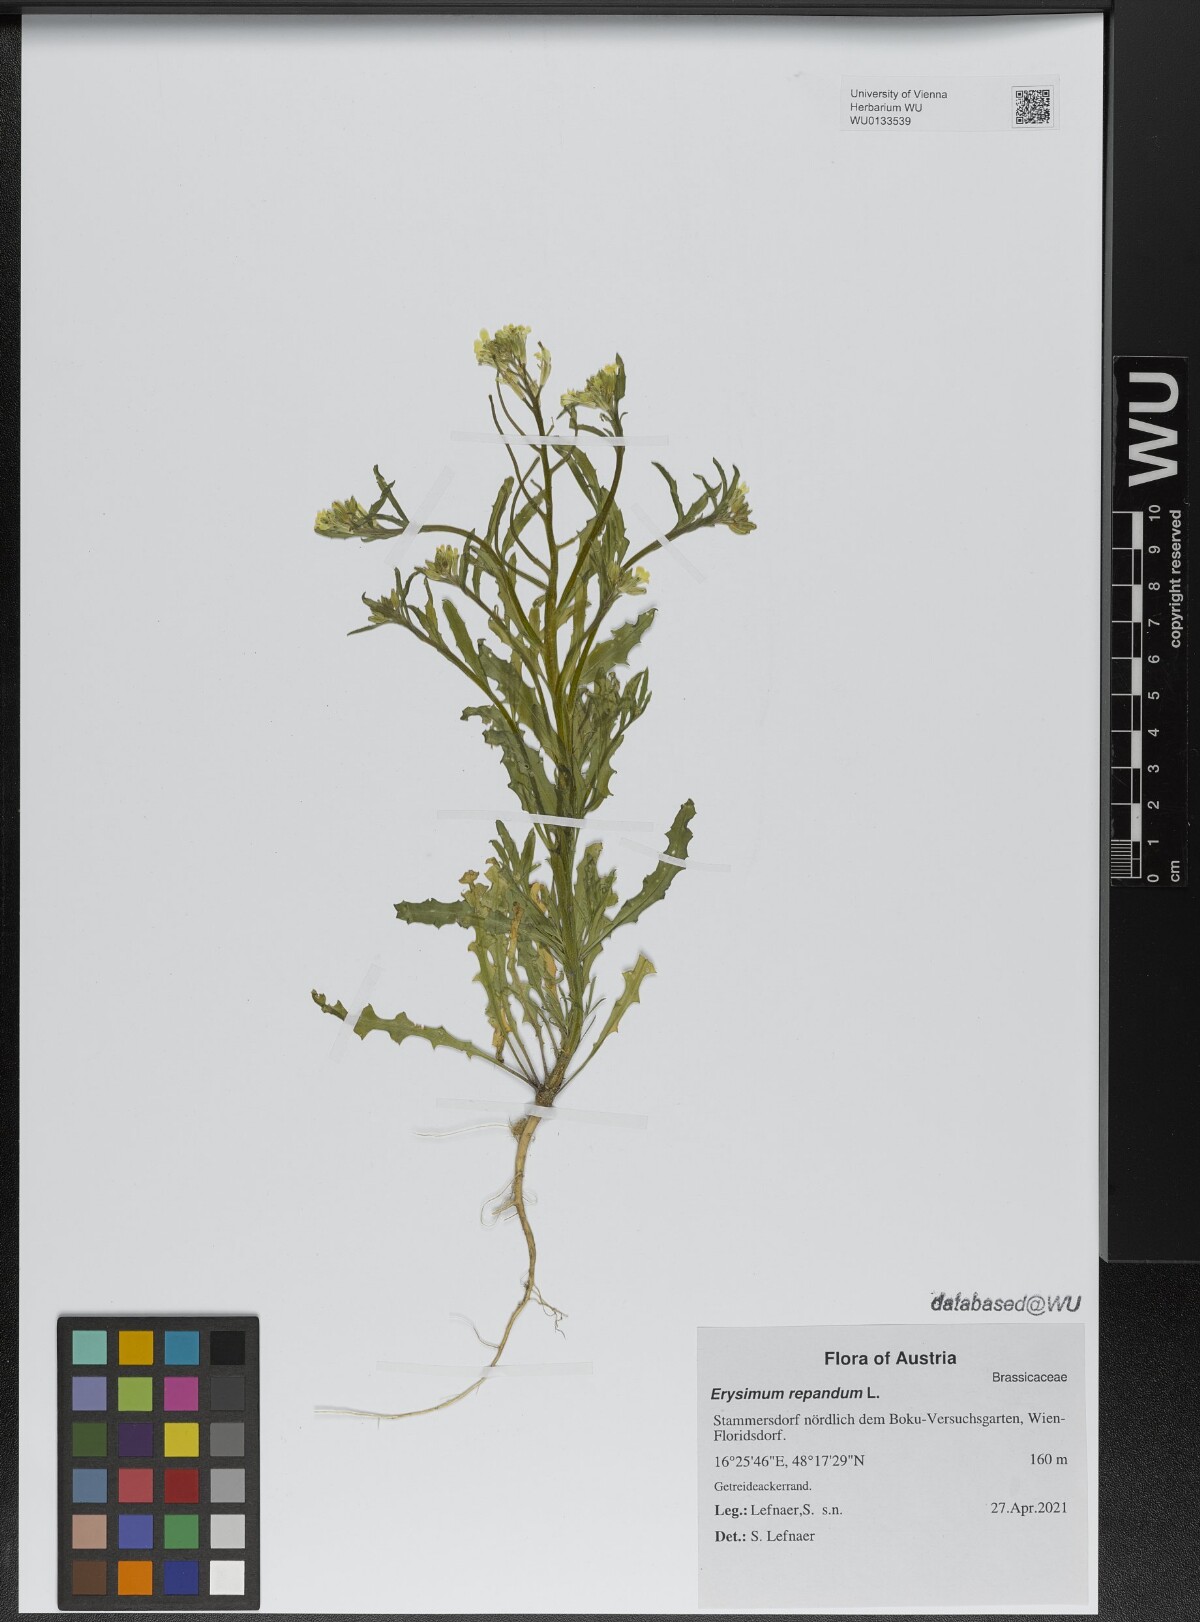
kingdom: Plantae
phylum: Tracheophyta
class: Magnoliopsida
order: Brassicales
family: Brassicaceae
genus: Erysimum
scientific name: Erysimum repandum
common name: Spreading wallflower
